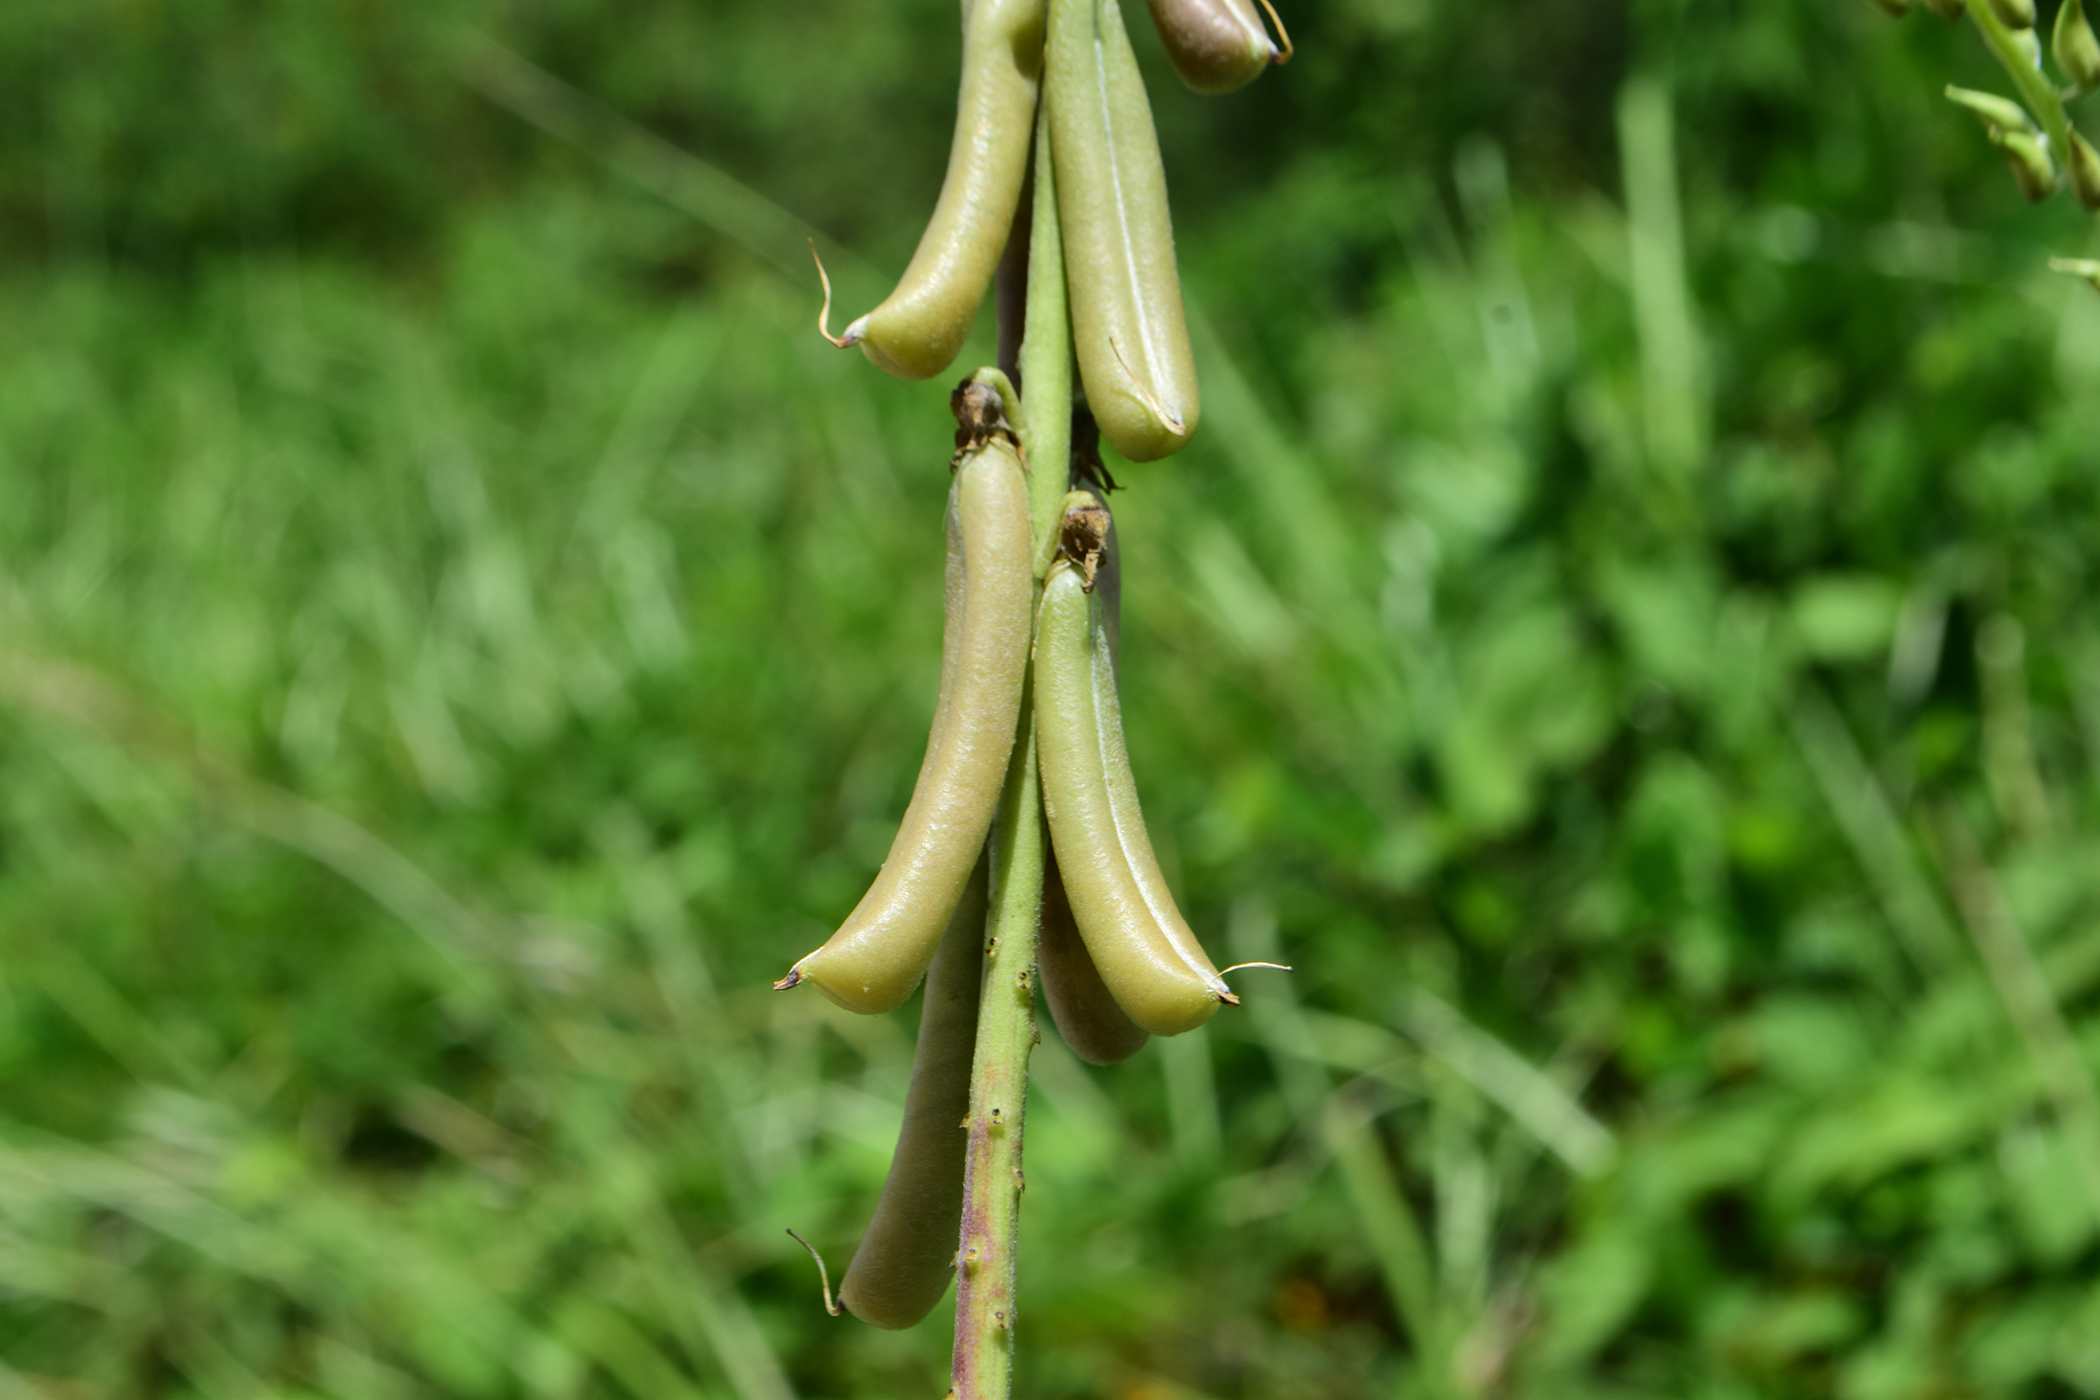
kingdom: Plantae
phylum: Tracheophyta
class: Magnoliopsida
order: Fabales
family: Fabaceae
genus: Crotalaria
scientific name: Crotalaria pallida
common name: Smooth rattlebox
